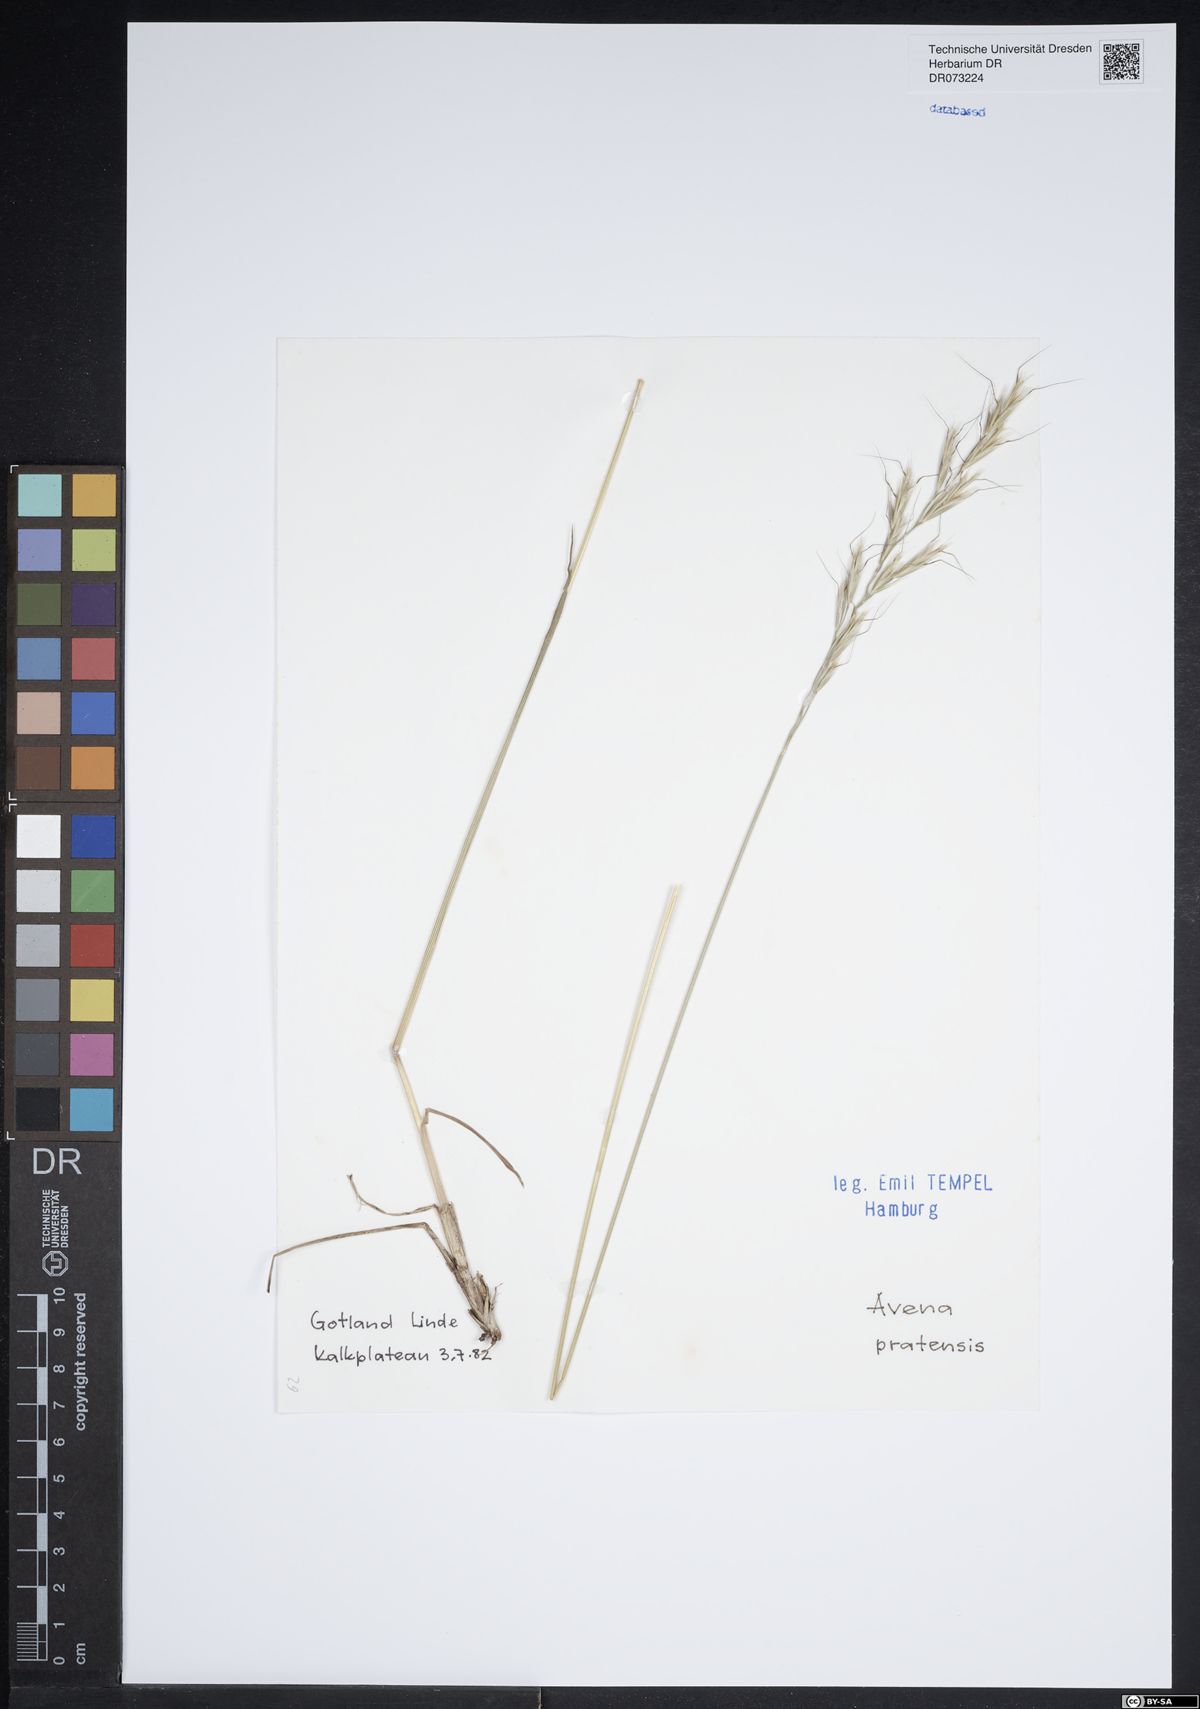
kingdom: Plantae
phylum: Tracheophyta
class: Liliopsida
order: Poales
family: Poaceae
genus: Helictochloa
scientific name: Helictochloa pratensis
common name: Meadow oat grass
